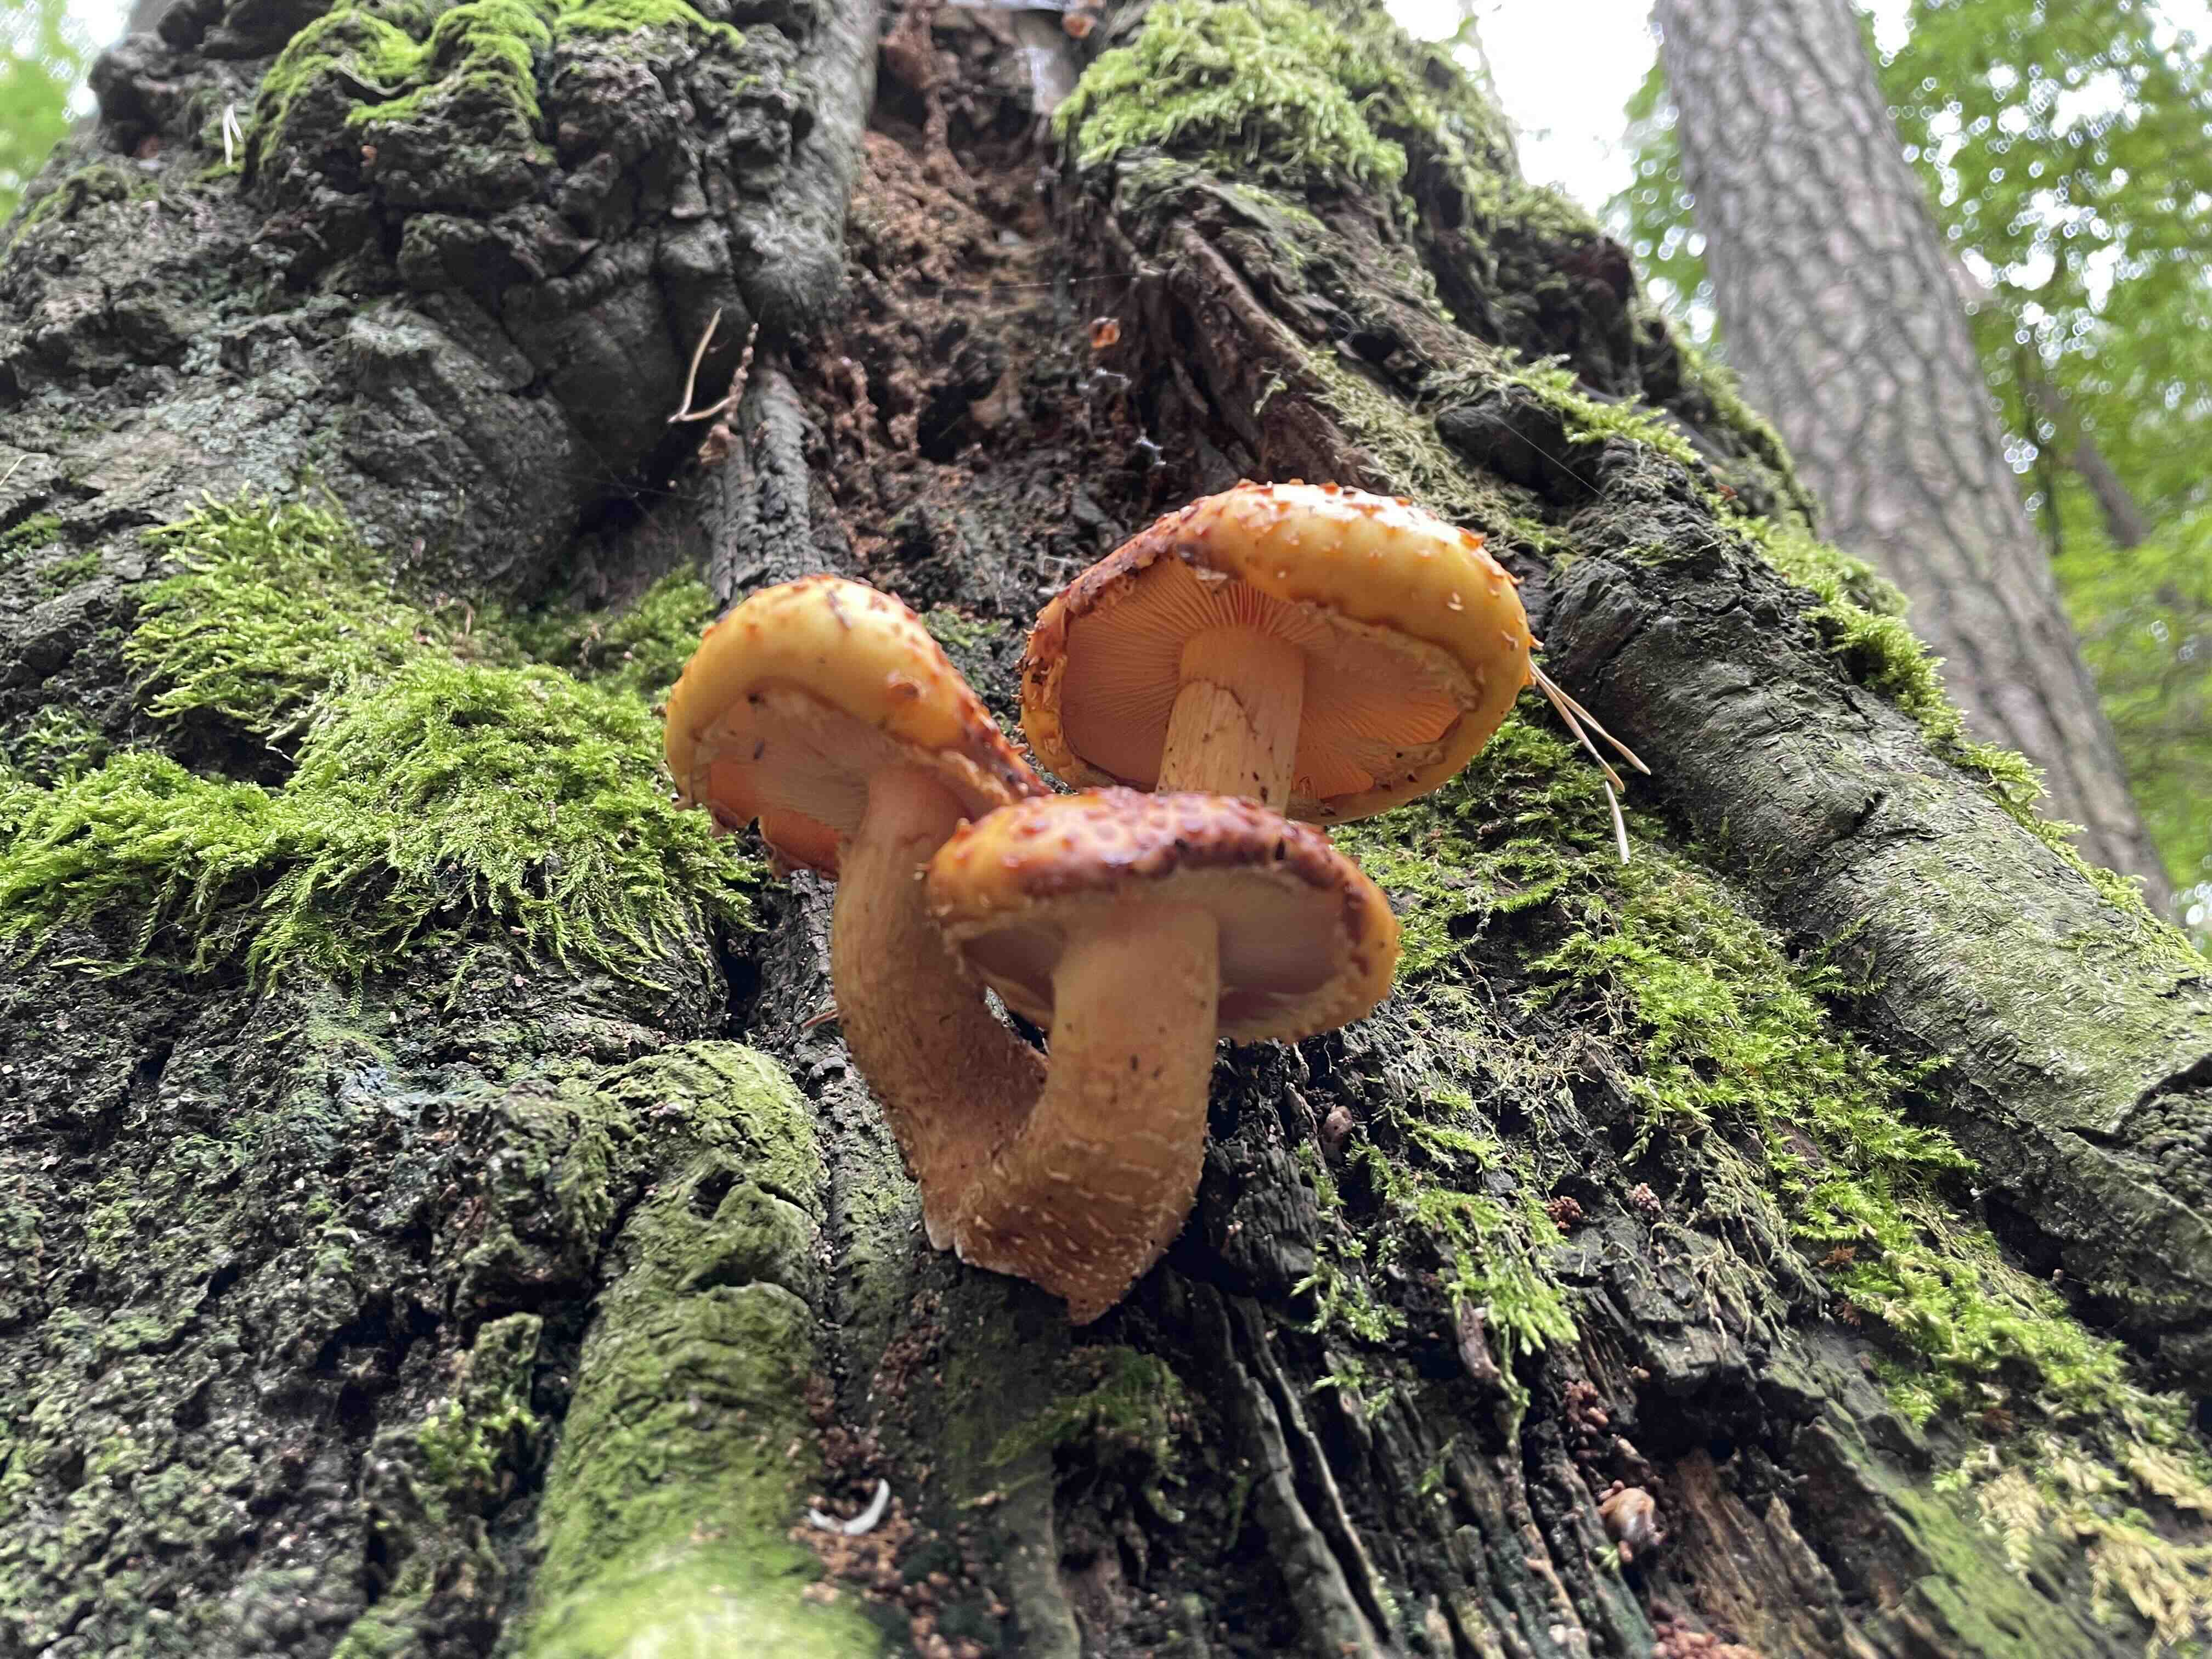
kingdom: Fungi
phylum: Basidiomycota
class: Agaricomycetes
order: Agaricales
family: Strophariaceae
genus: Pholiota
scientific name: Pholiota
